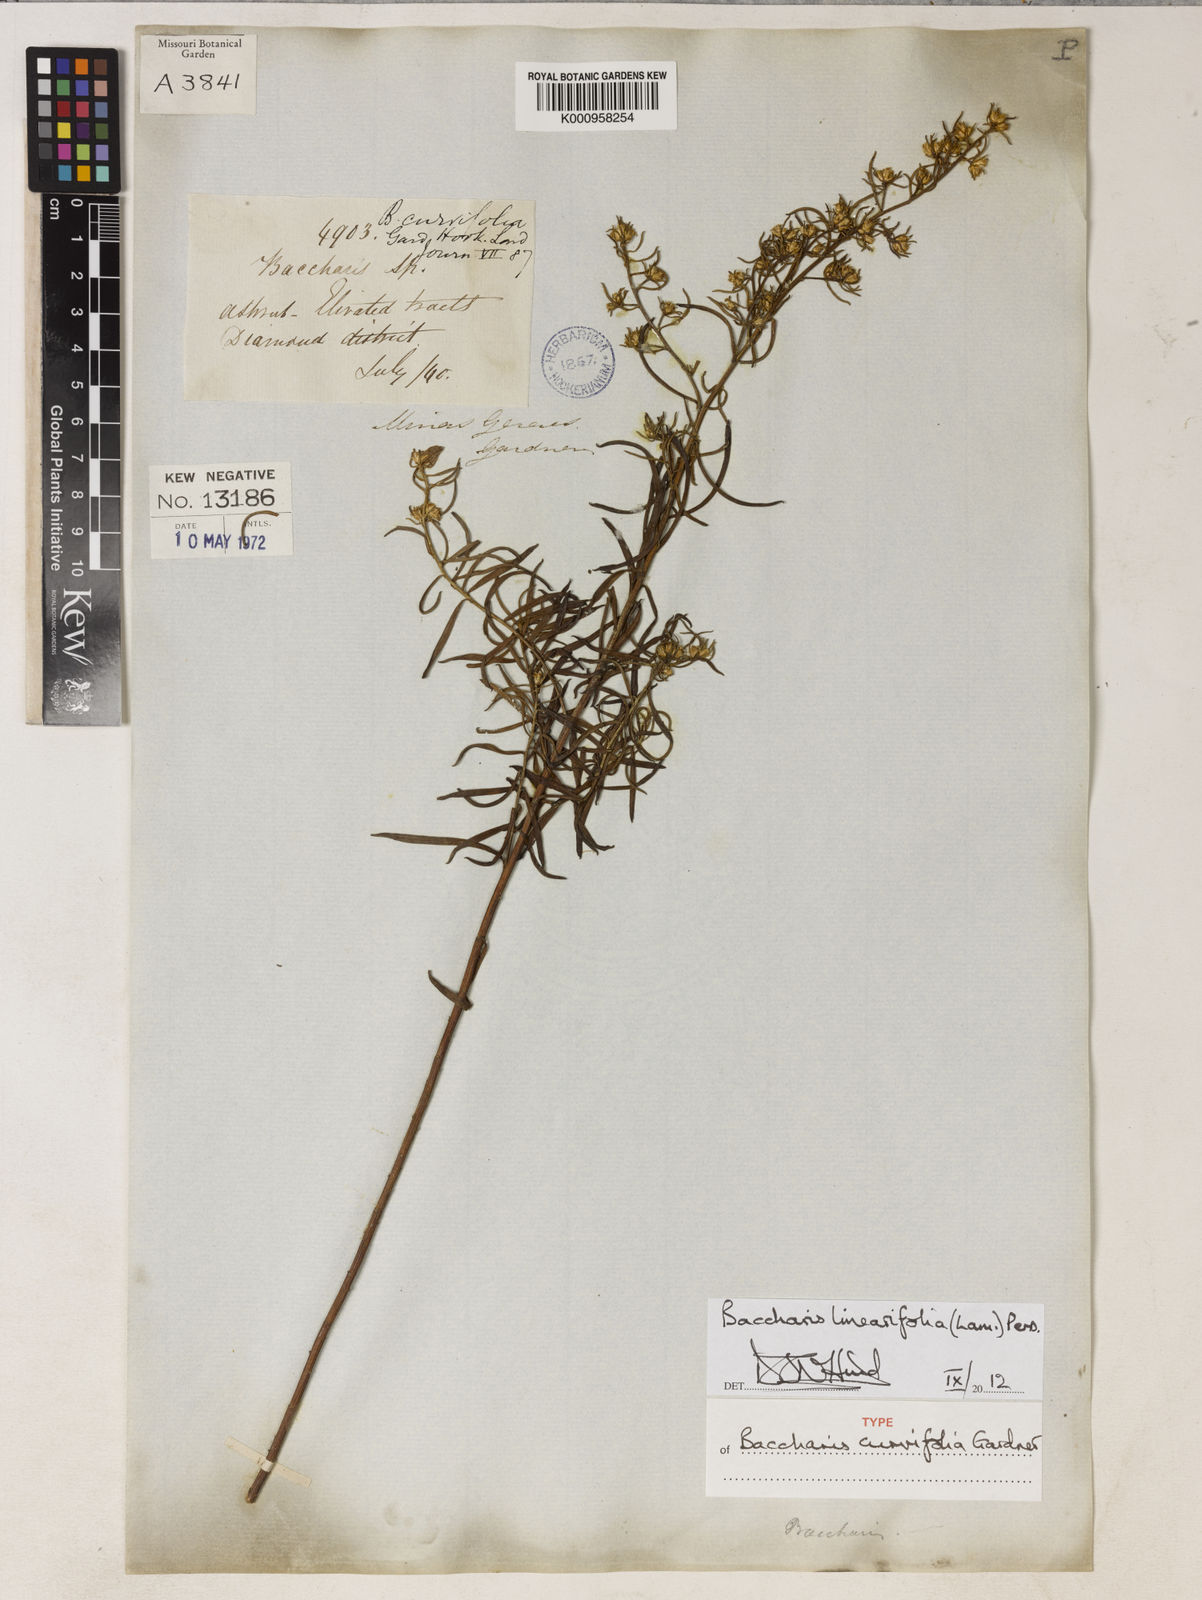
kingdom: Plantae
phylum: Tracheophyta
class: Magnoliopsida
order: Asterales
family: Asteraceae
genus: Baccharis
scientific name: Baccharis linearifolia
